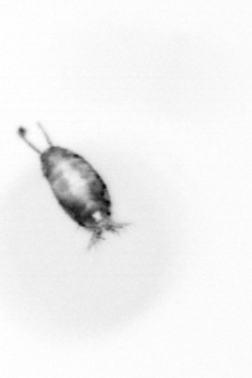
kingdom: Animalia
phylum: Arthropoda
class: Copepoda
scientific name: Copepoda
